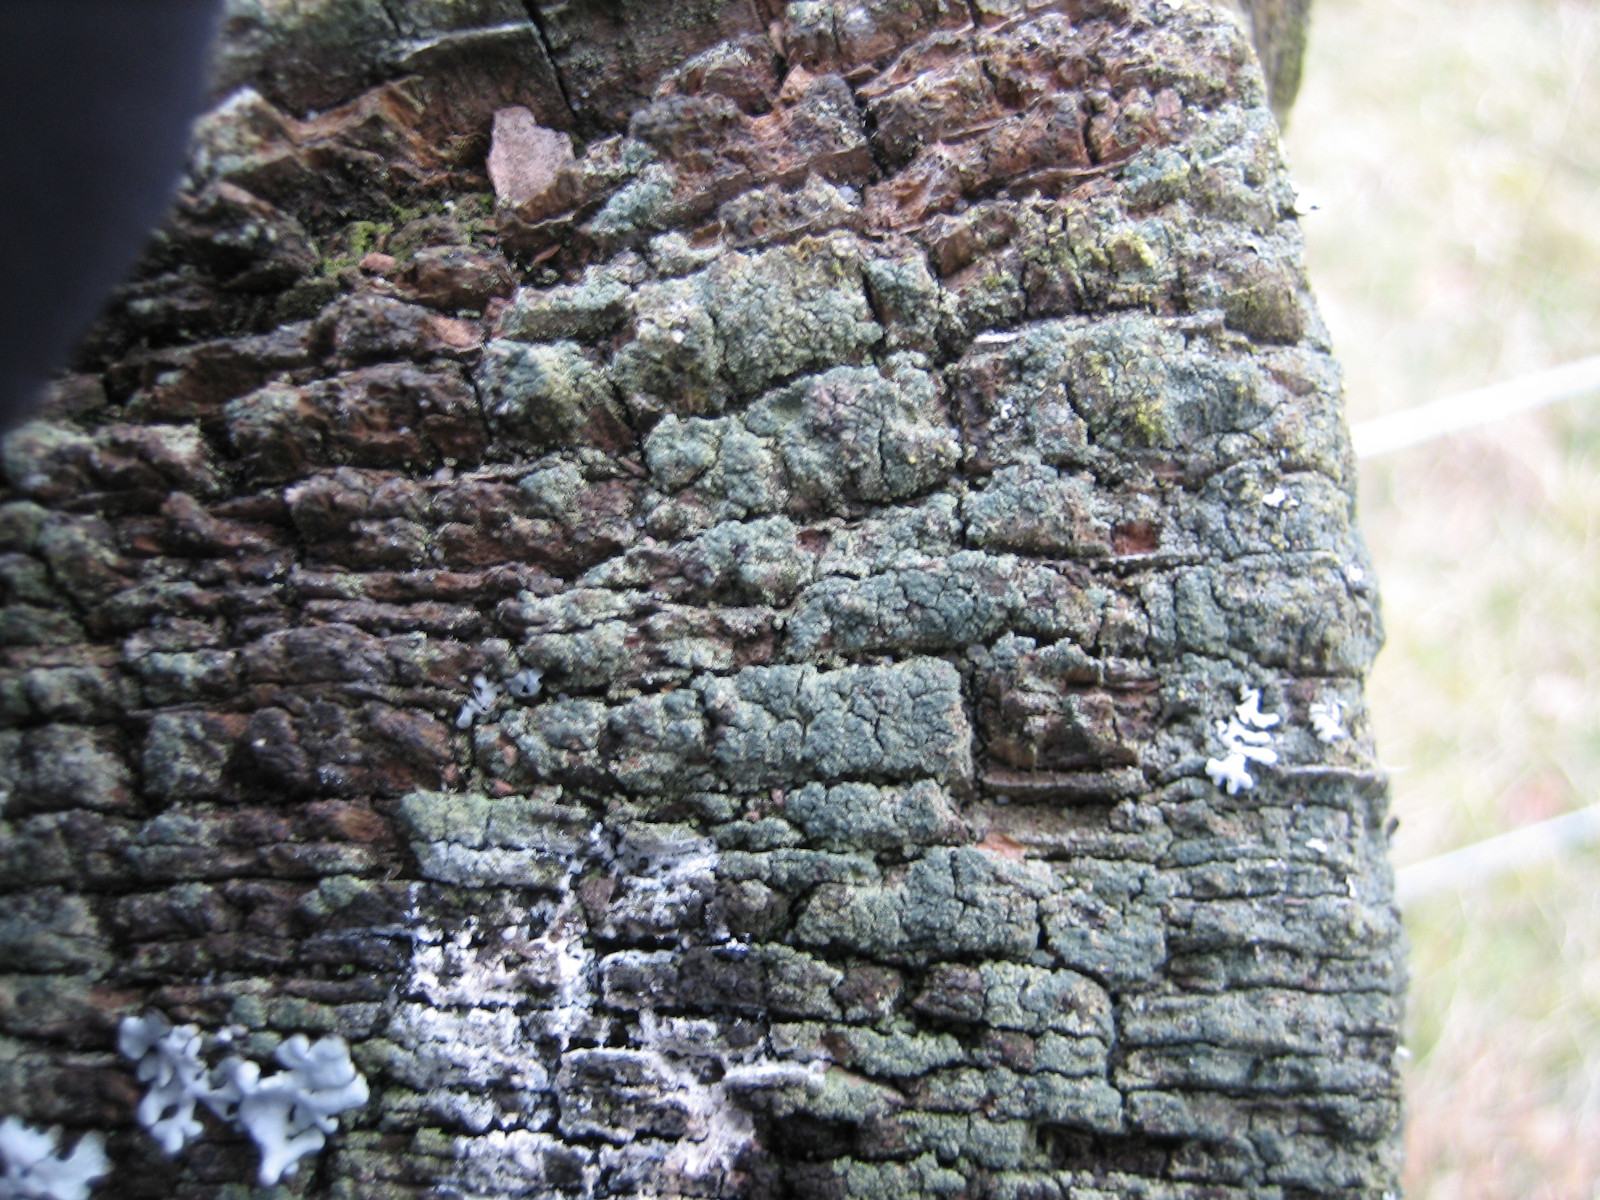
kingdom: Fungi
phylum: Ascomycota
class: Lecanoromycetes
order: Baeomycetales
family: Trapeliaceae
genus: Trapeliopsis
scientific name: Trapeliopsis flexuosa
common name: spanskgrøn skivelav
